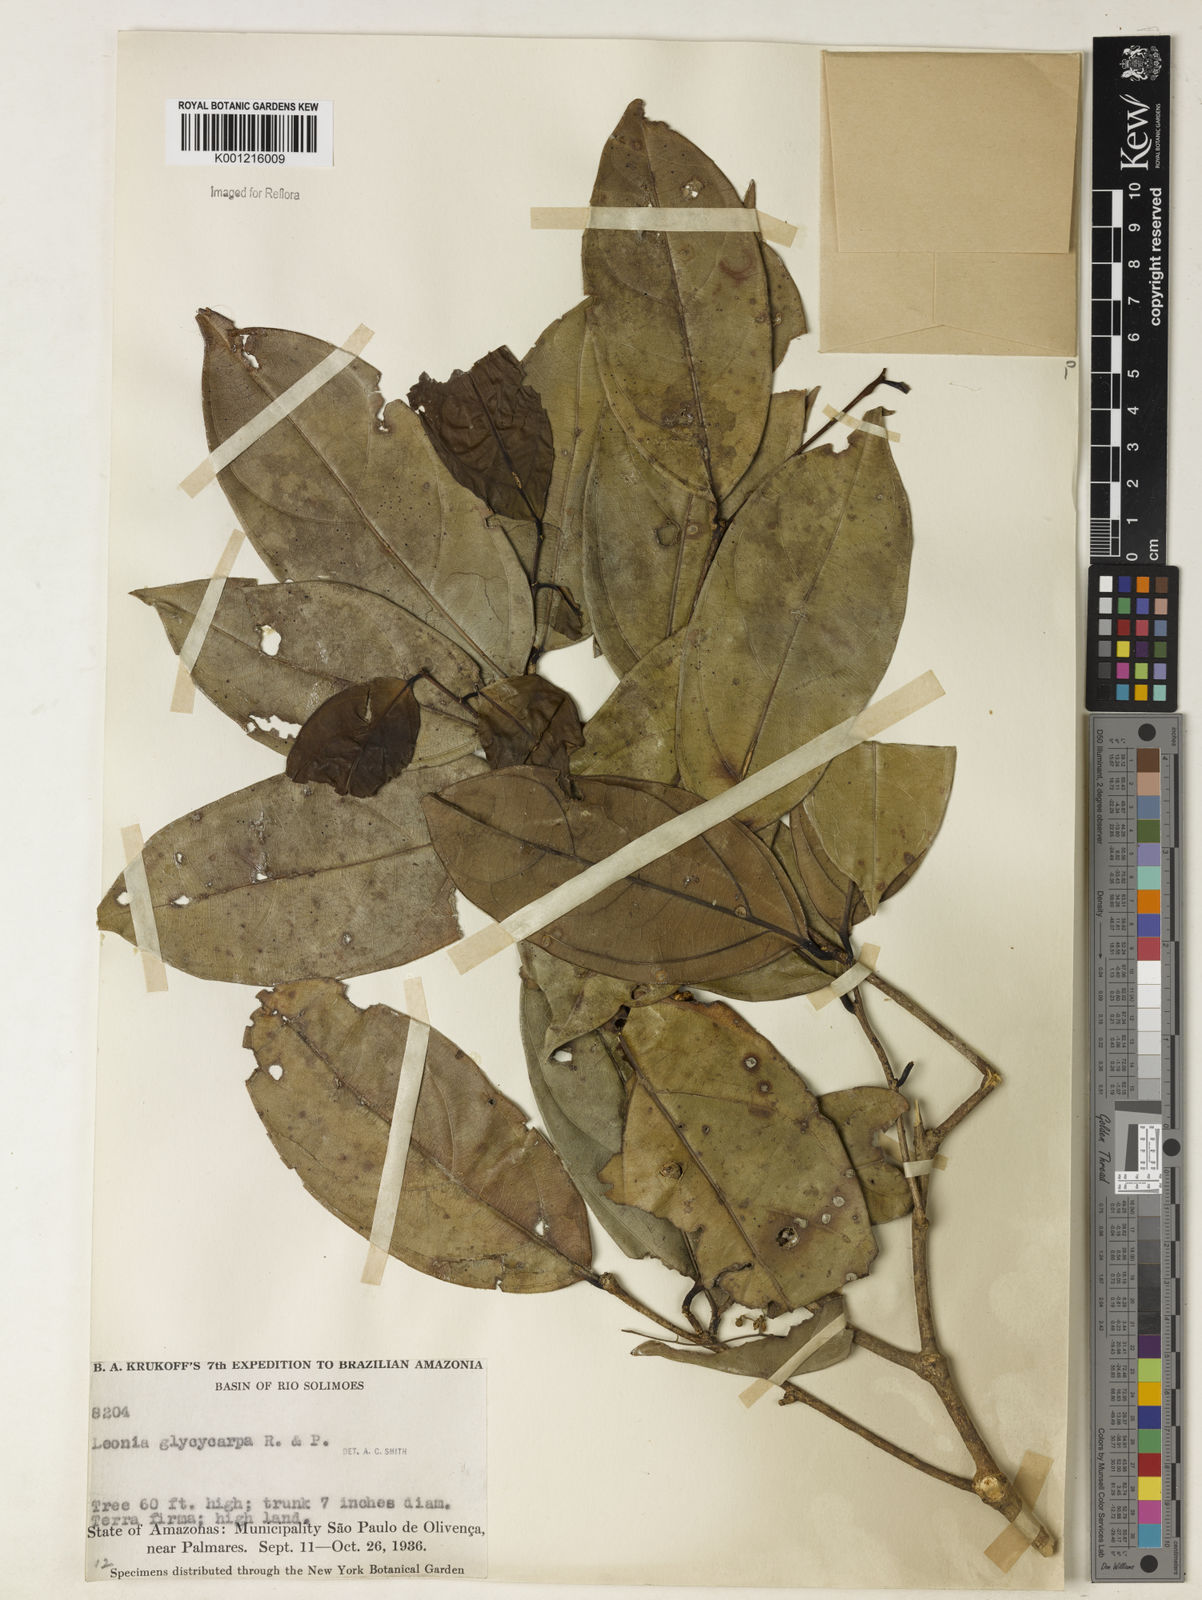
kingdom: Plantae
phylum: Tracheophyta
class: Magnoliopsida
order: Malpighiales
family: Violaceae
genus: Leonia
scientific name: Leonia glycycarpa
